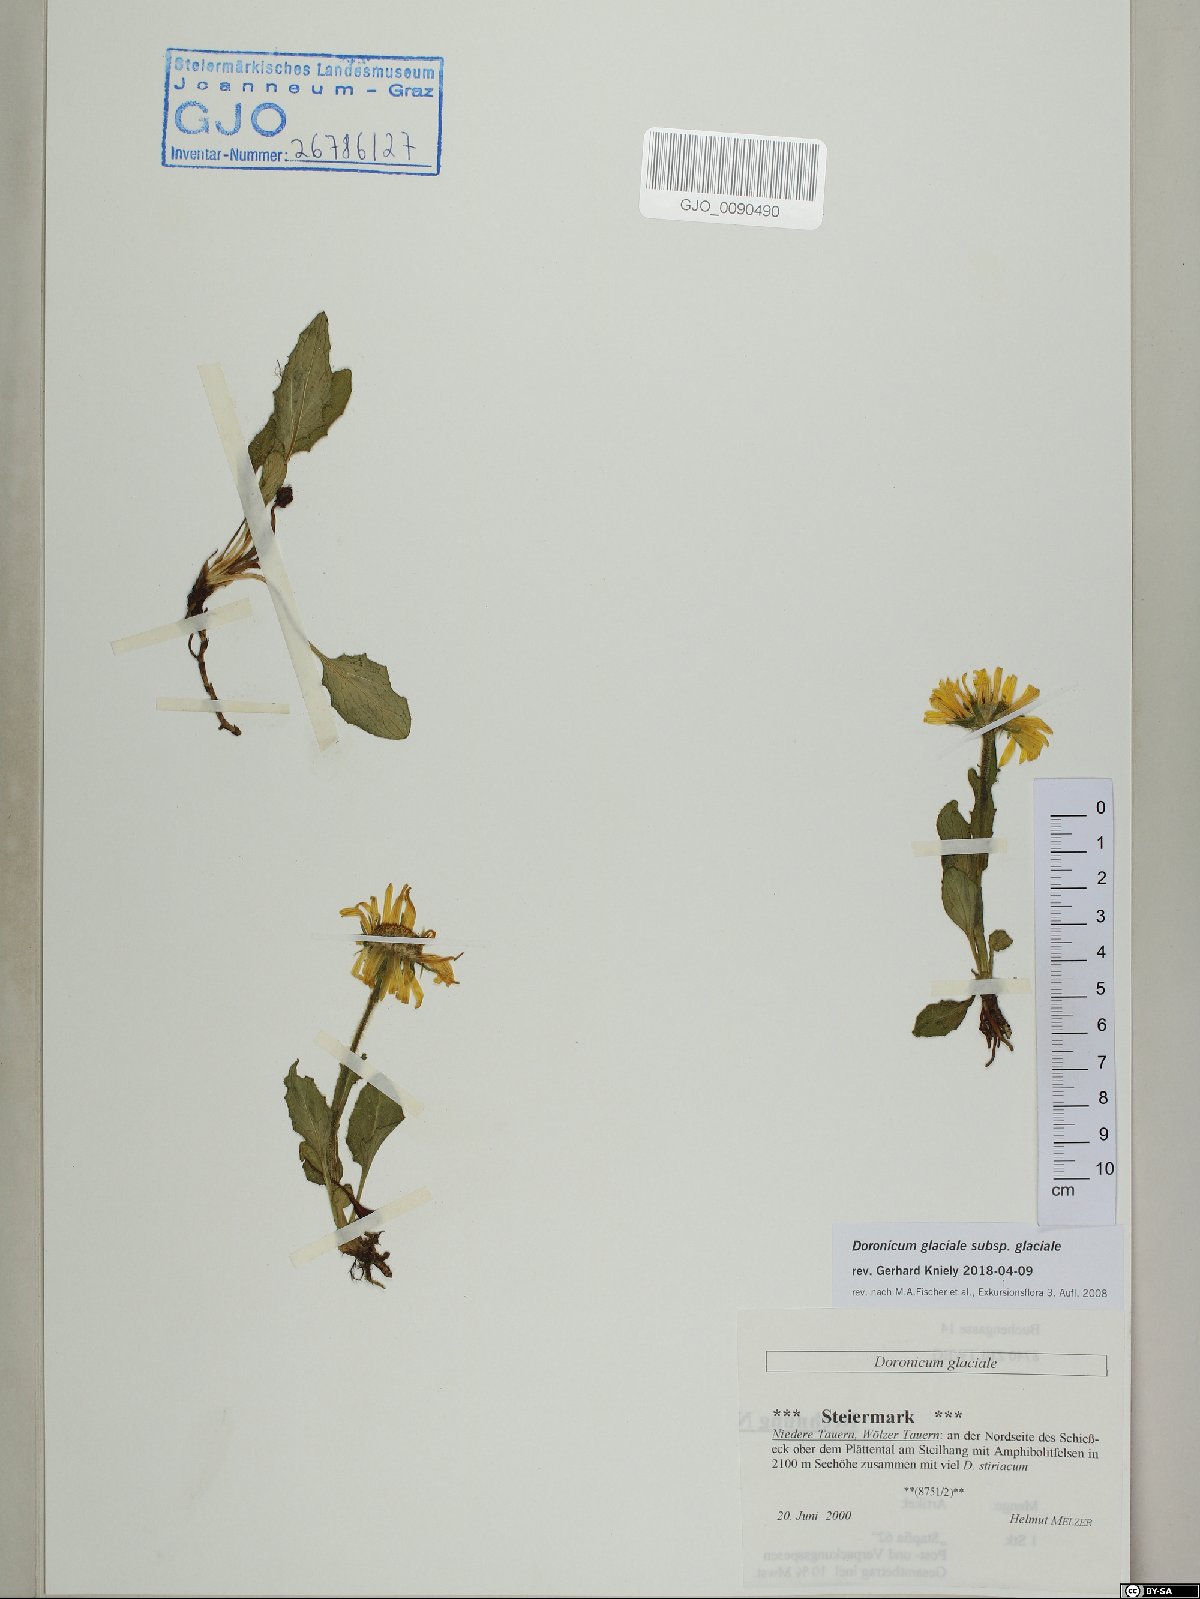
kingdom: Plantae
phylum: Tracheophyta
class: Magnoliopsida
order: Asterales
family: Asteraceae
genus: Doronicum
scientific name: Doronicum glaciale
